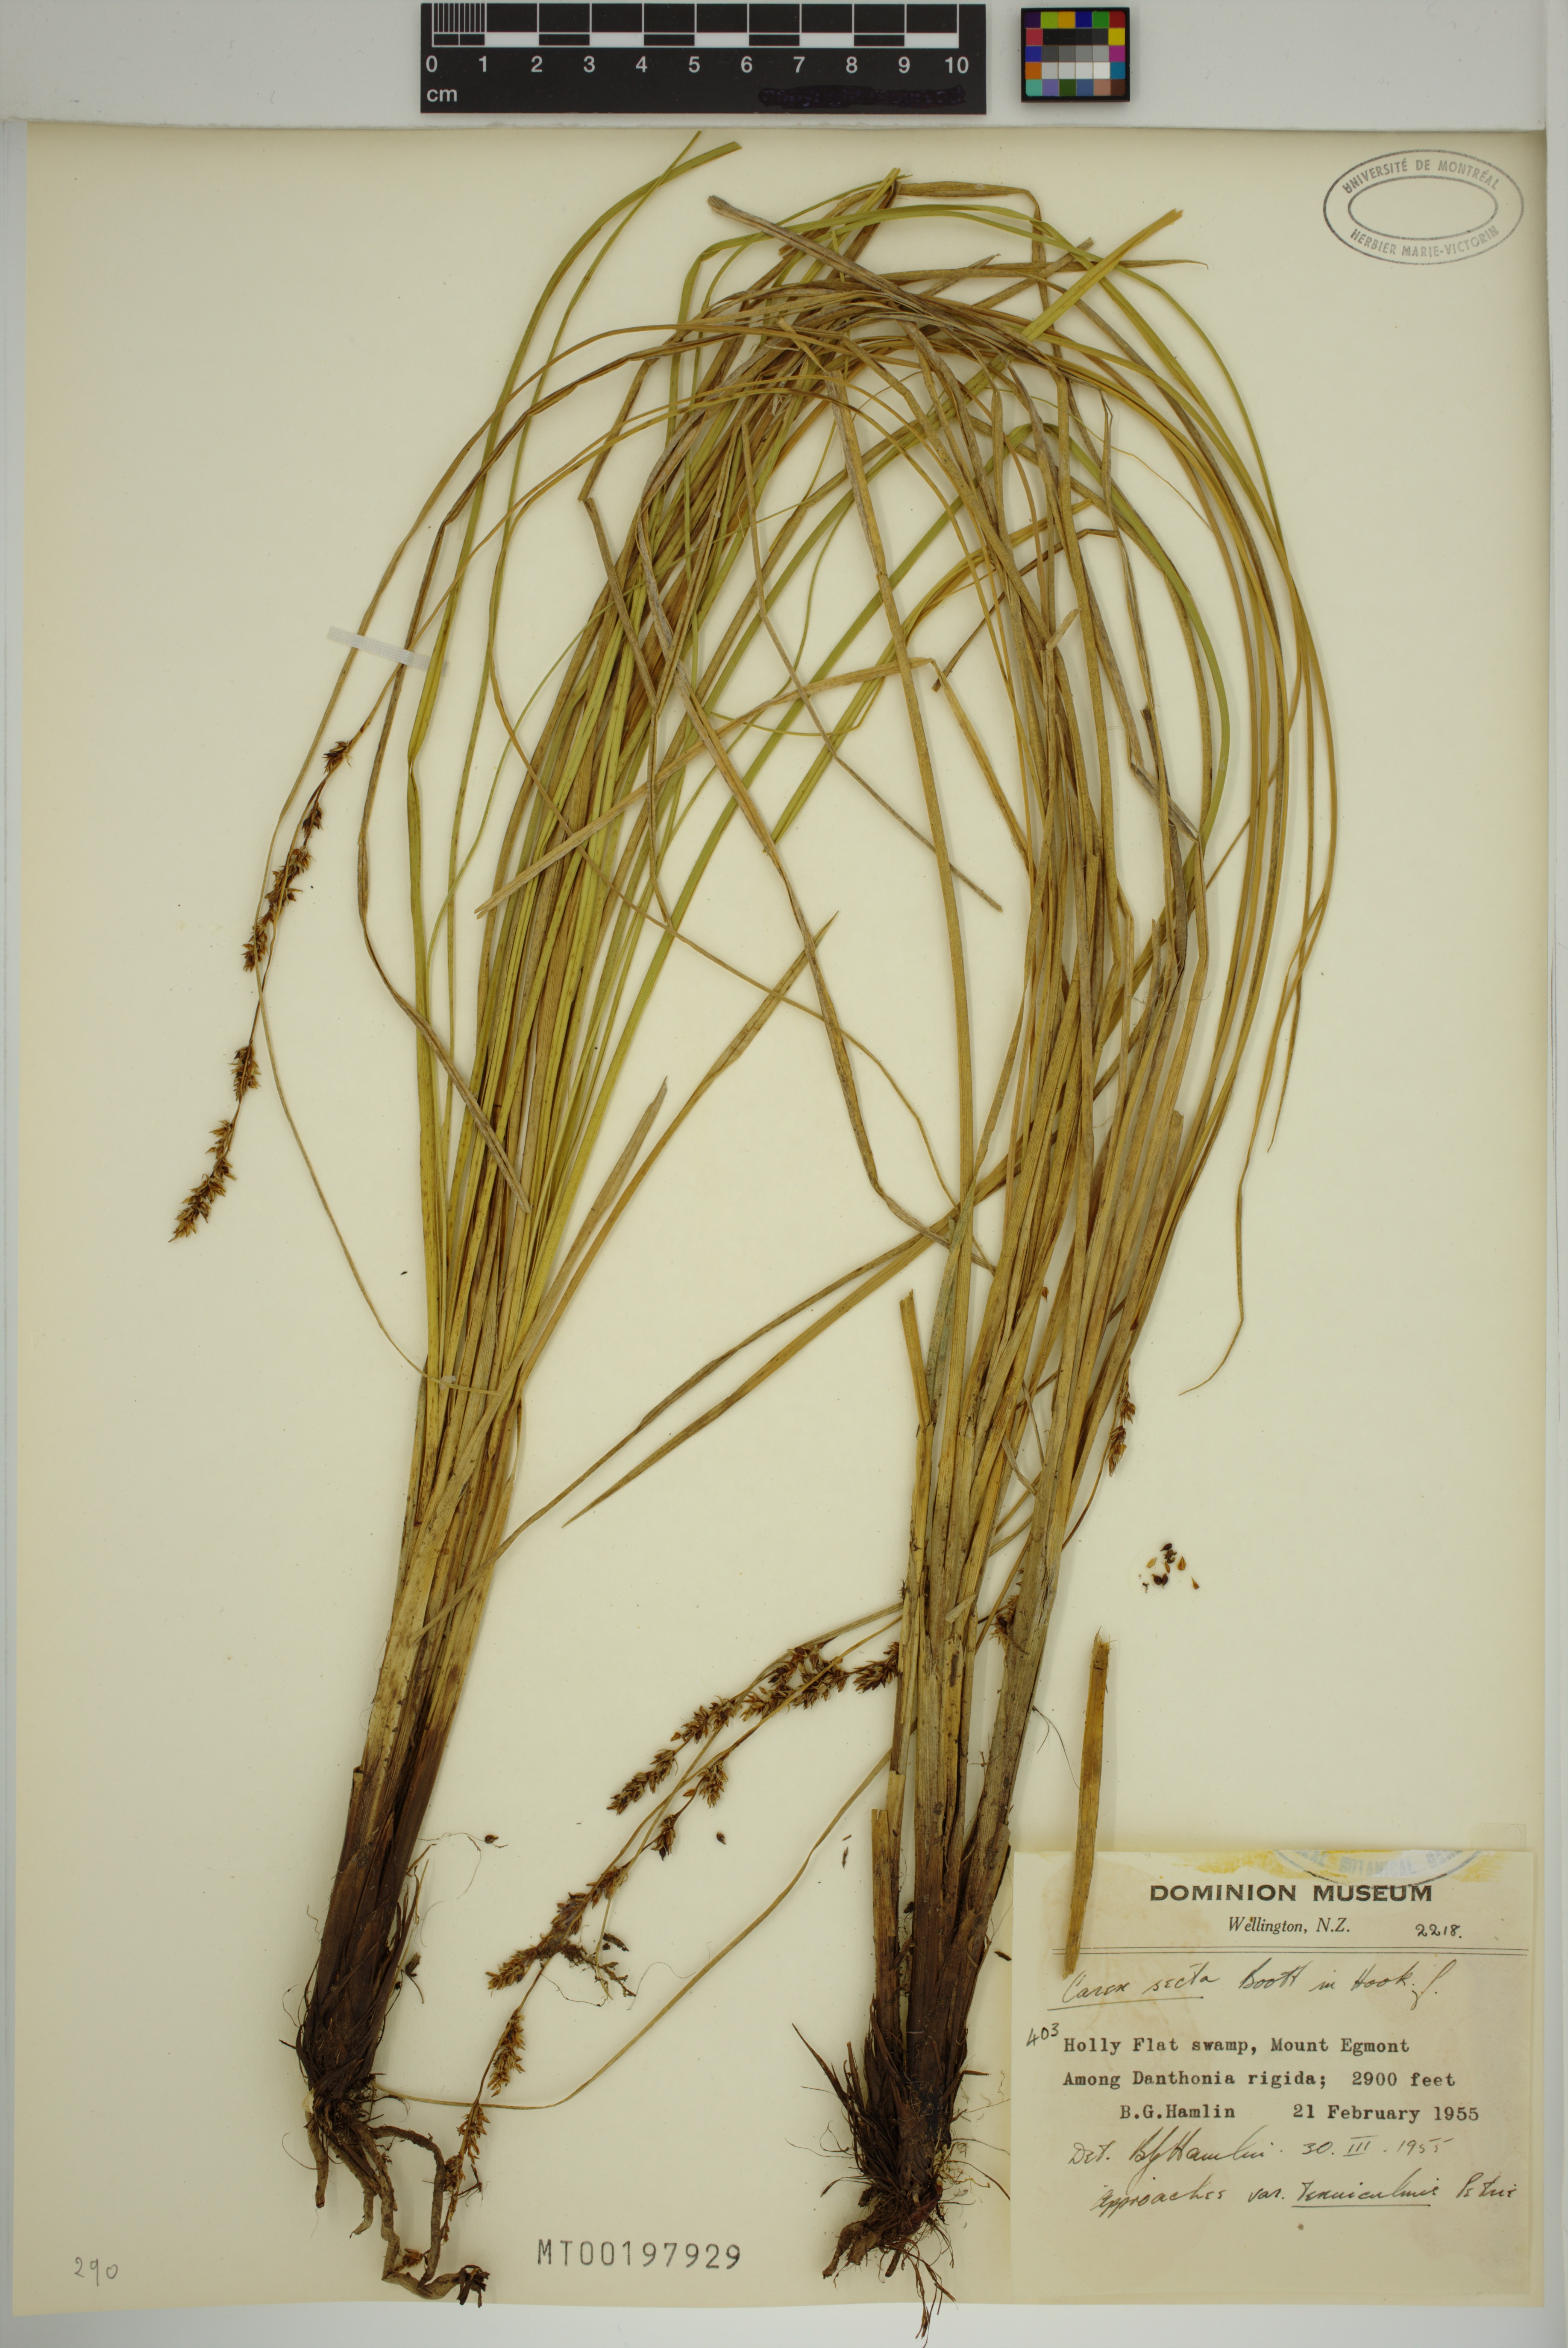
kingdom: Plantae
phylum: Tracheophyta
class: Liliopsida
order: Poales
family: Cyperaceae
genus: Carex
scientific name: Carex secta
